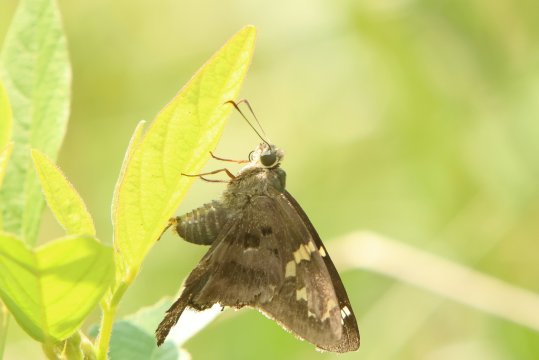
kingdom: Animalia
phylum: Arthropoda
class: Insecta
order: Lepidoptera
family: Hesperiidae
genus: Urbanus
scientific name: Urbanus proteus
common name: Long-tailed Skipper
